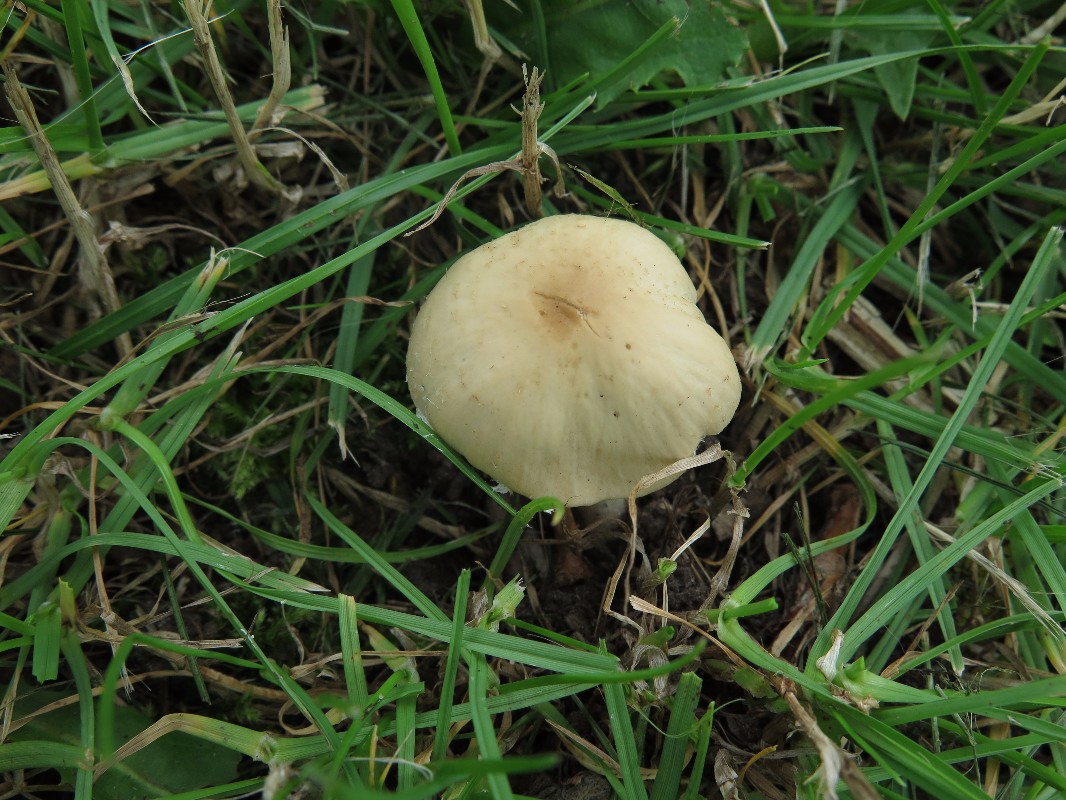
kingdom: Fungi
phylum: Basidiomycota
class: Agaricomycetes
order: Agaricales
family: Psathyrellaceae
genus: Candolleomyces
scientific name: Candolleomyces candolleanus
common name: Candolles mørkhat
